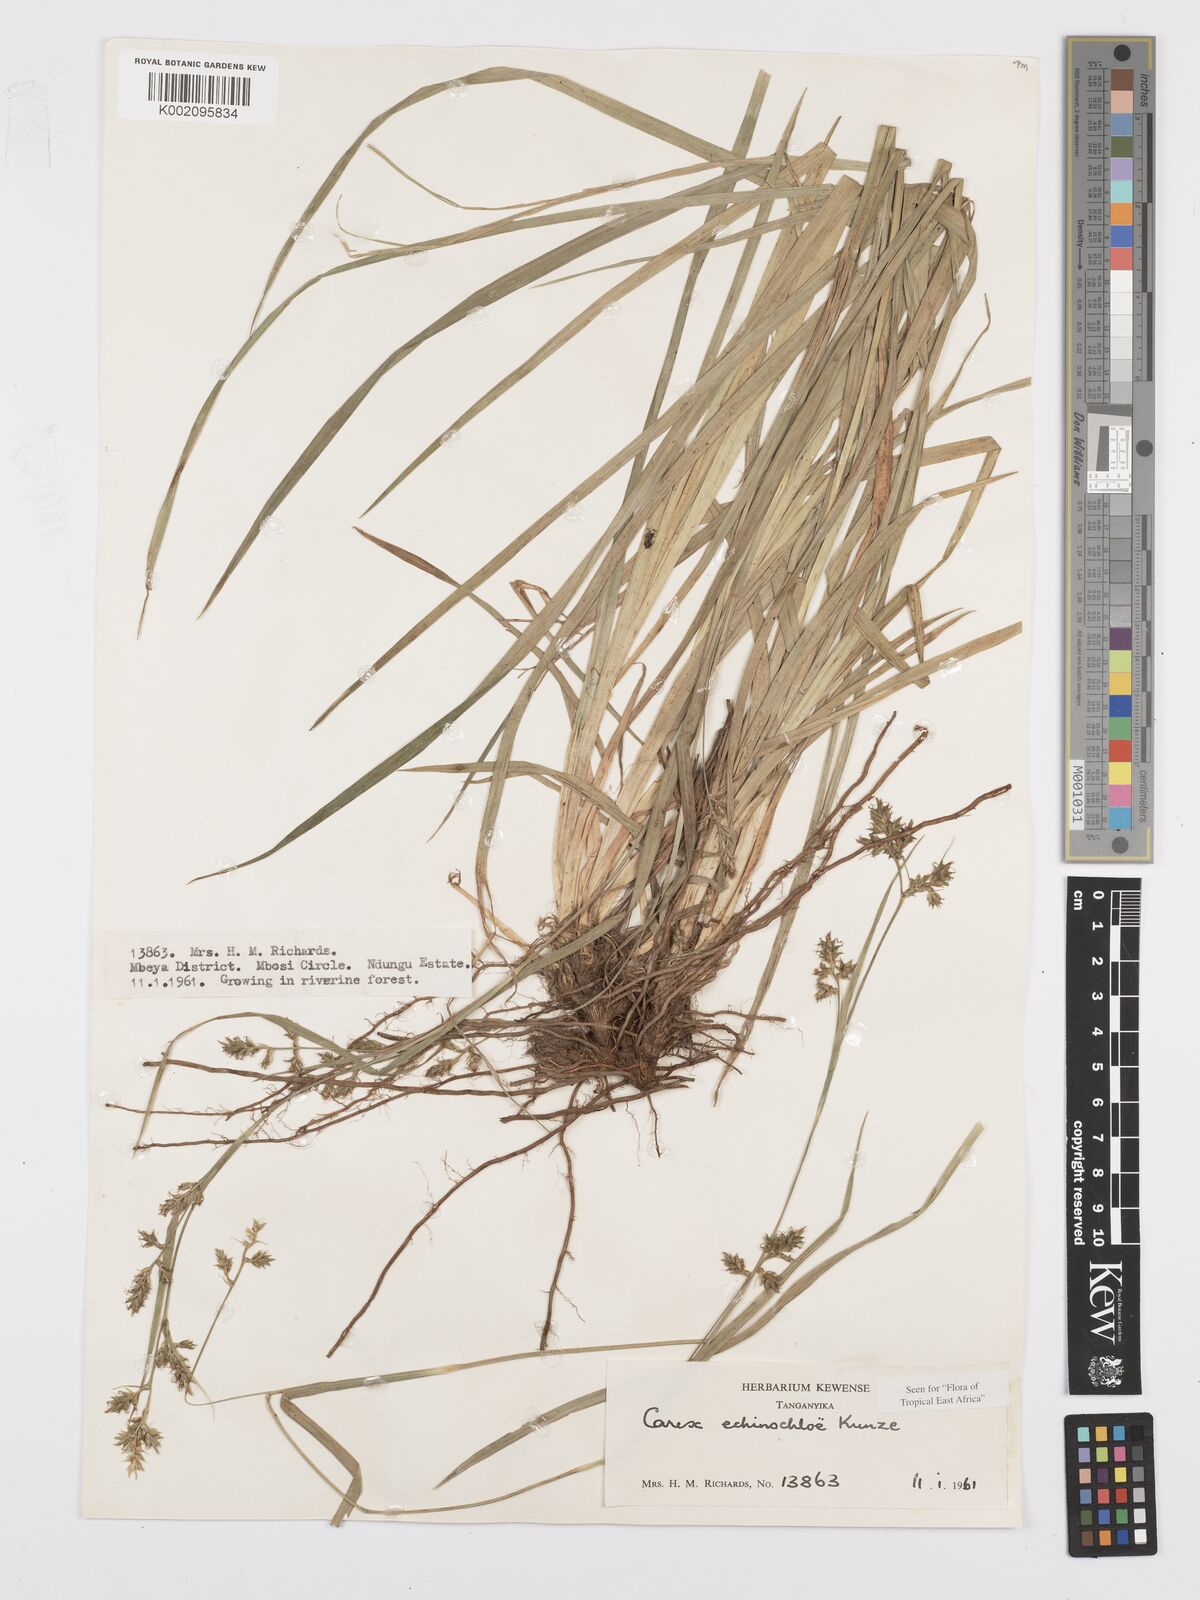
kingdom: Plantae
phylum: Tracheophyta
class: Liliopsida
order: Poales
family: Cyperaceae
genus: Carex
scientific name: Carex echinochloe
